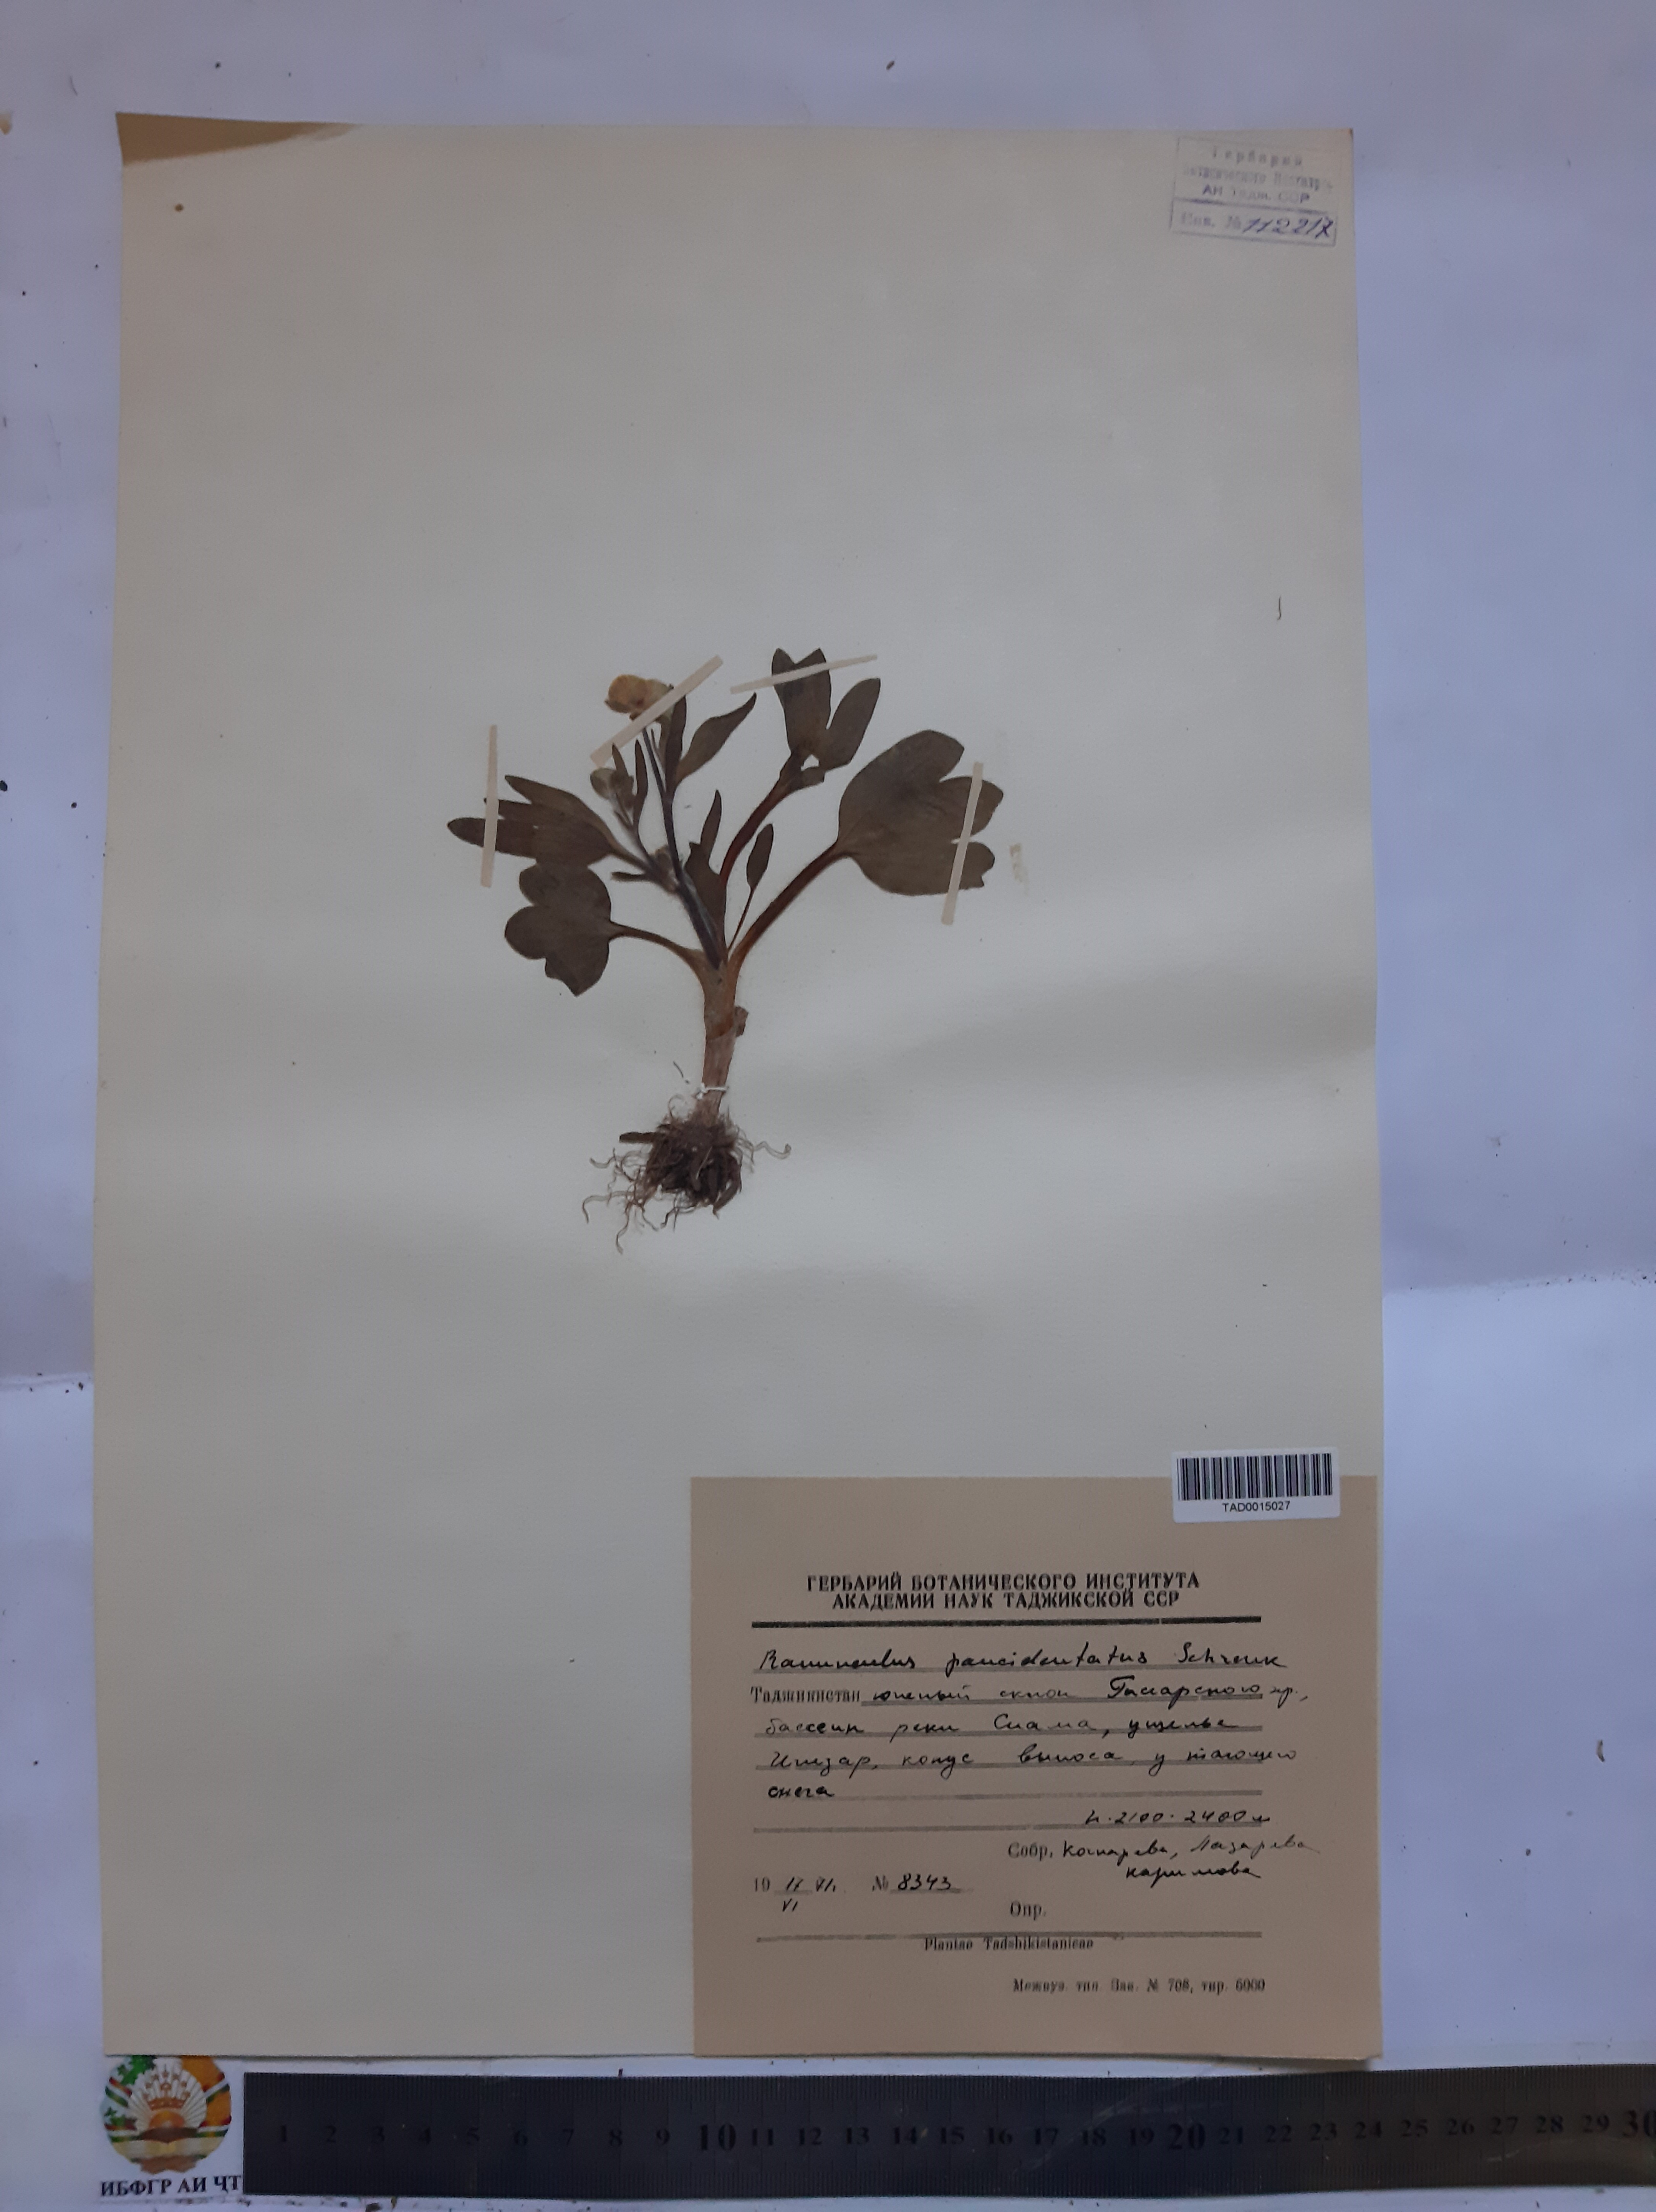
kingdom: Plantae
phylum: Tracheophyta
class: Magnoliopsida
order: Ranunculales
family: Ranunculaceae
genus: Ranunculus
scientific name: Ranunculus paucidentatus
